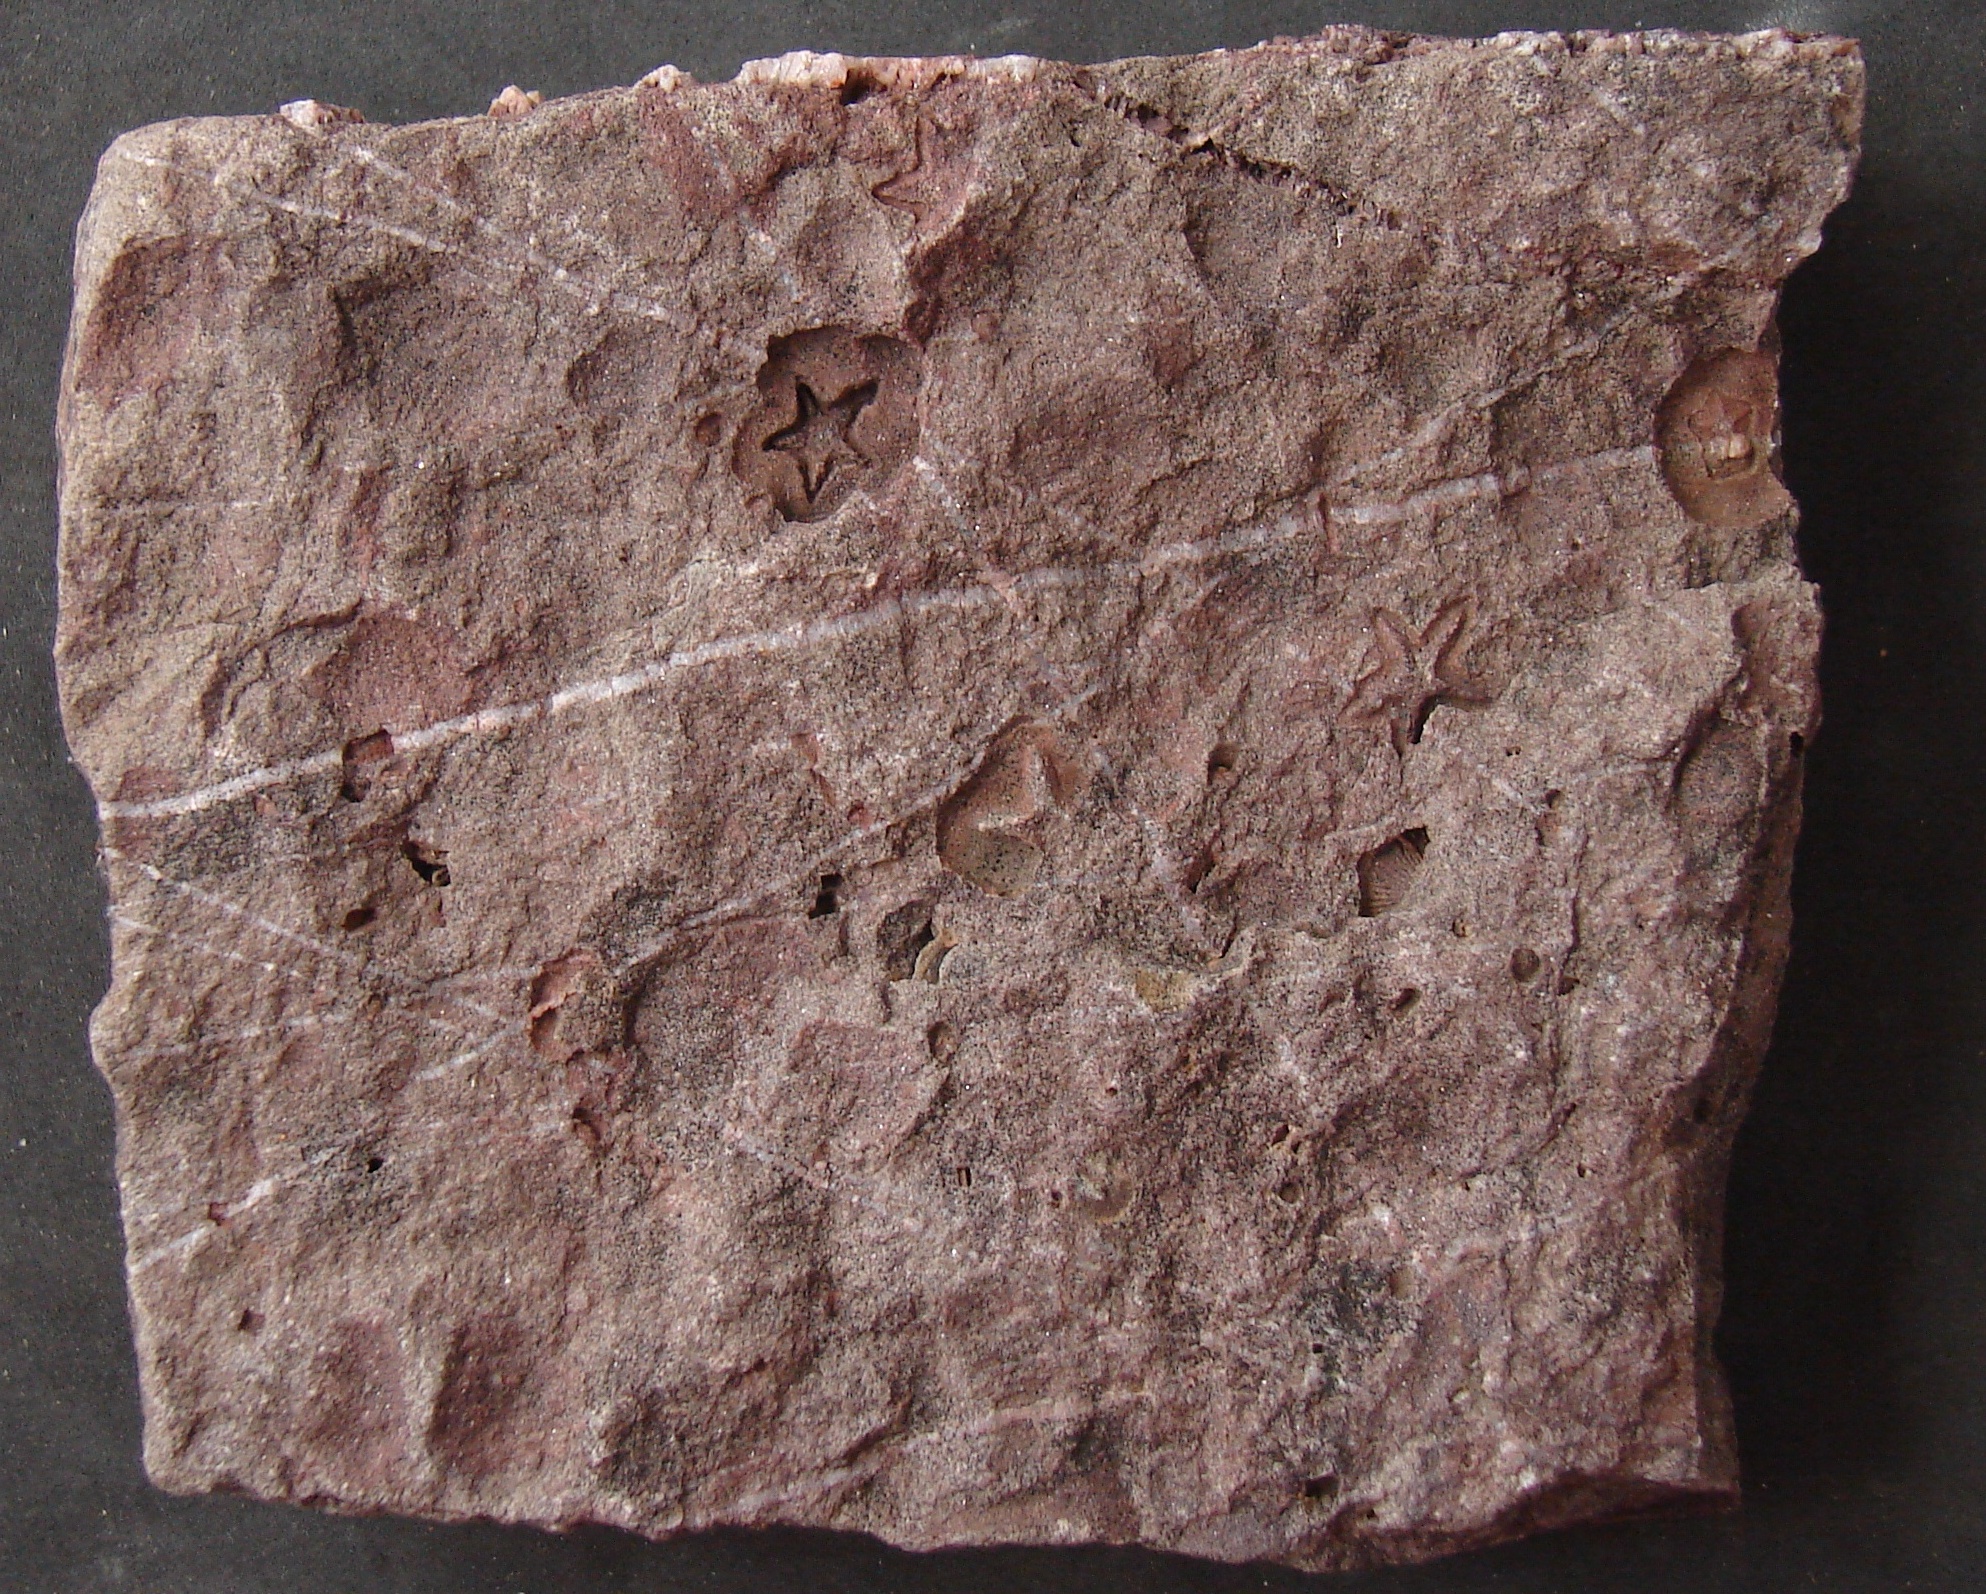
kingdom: Animalia
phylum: Echinodermata
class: Crinoidea
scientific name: Crinoidea
